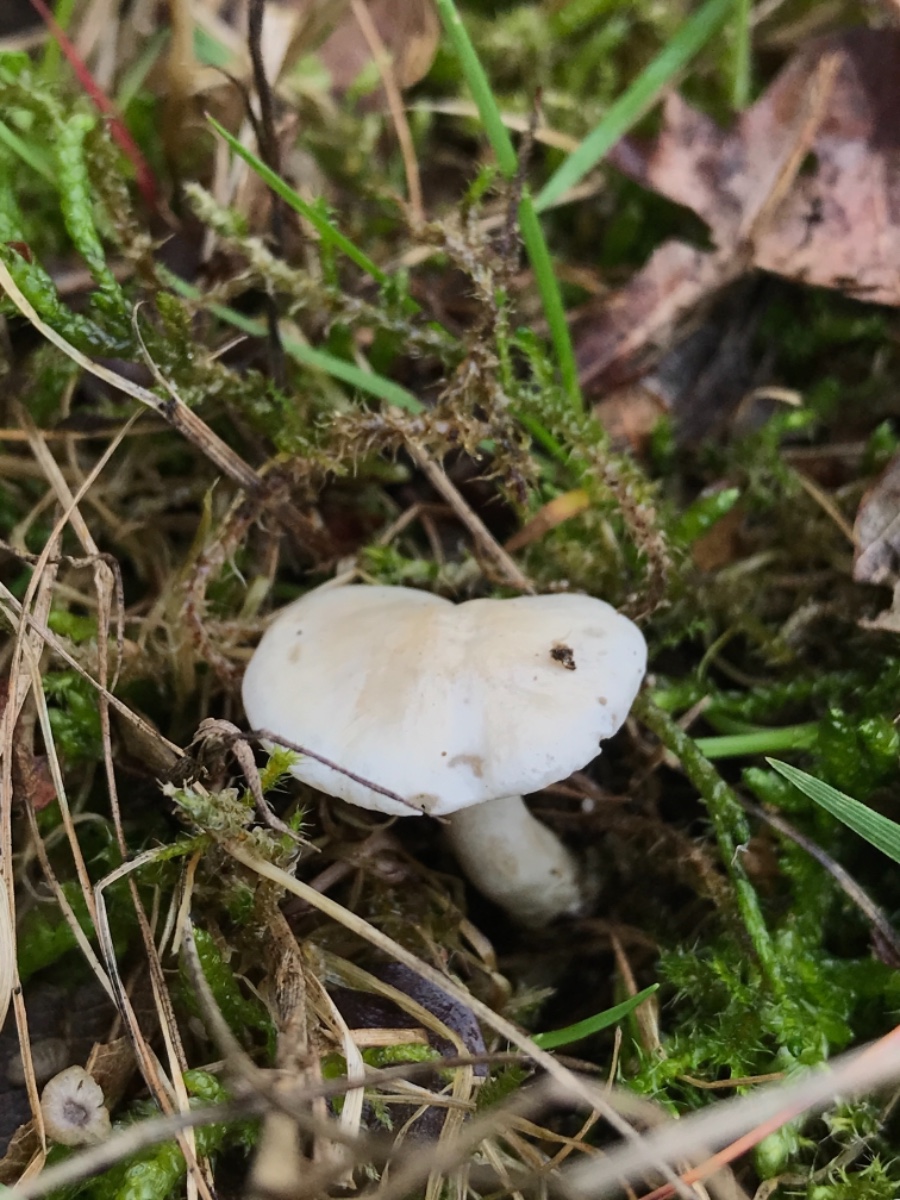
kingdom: Fungi
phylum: Basidiomycota
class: Agaricomycetes
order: Agaricales
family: Entolomataceae
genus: Clitopilus
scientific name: Clitopilus prunulus
